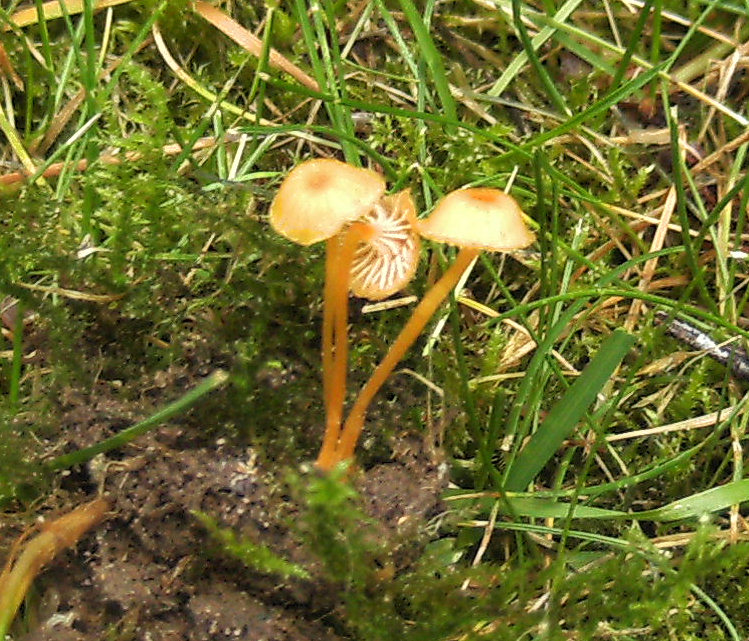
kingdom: Fungi
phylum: Basidiomycota
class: Agaricomycetes
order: Hymenochaetales
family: Rickenellaceae
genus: Rickenella
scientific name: Rickenella fibula
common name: orange mosnavlehat
